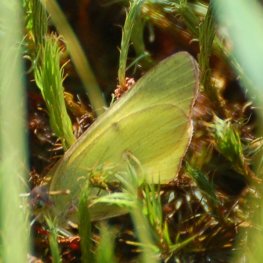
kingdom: Animalia
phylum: Arthropoda
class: Insecta
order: Lepidoptera
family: Pieridae
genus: Colias
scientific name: Colias interior
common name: Pink-edged Sulphur
